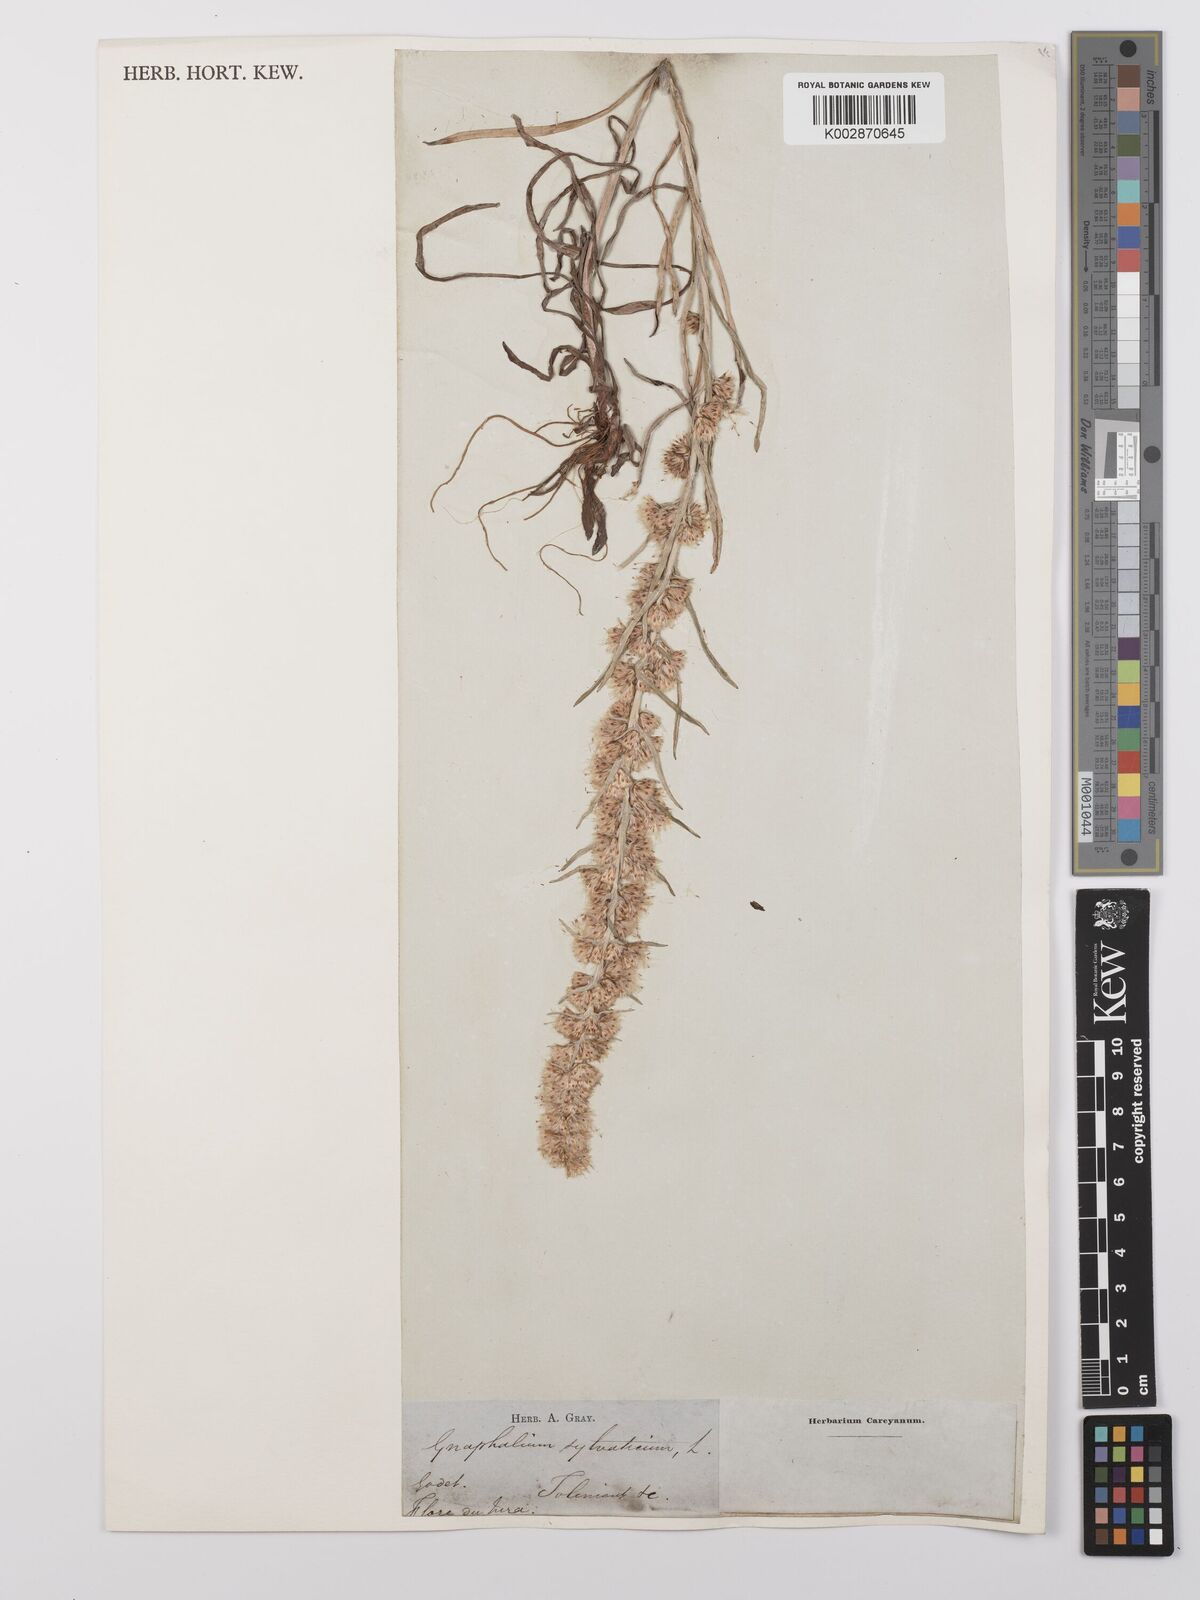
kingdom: Plantae
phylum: Tracheophyta
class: Magnoliopsida
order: Asterales
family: Asteraceae
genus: Omalotheca
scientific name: Omalotheca sylvatica
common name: Heath cudweed
